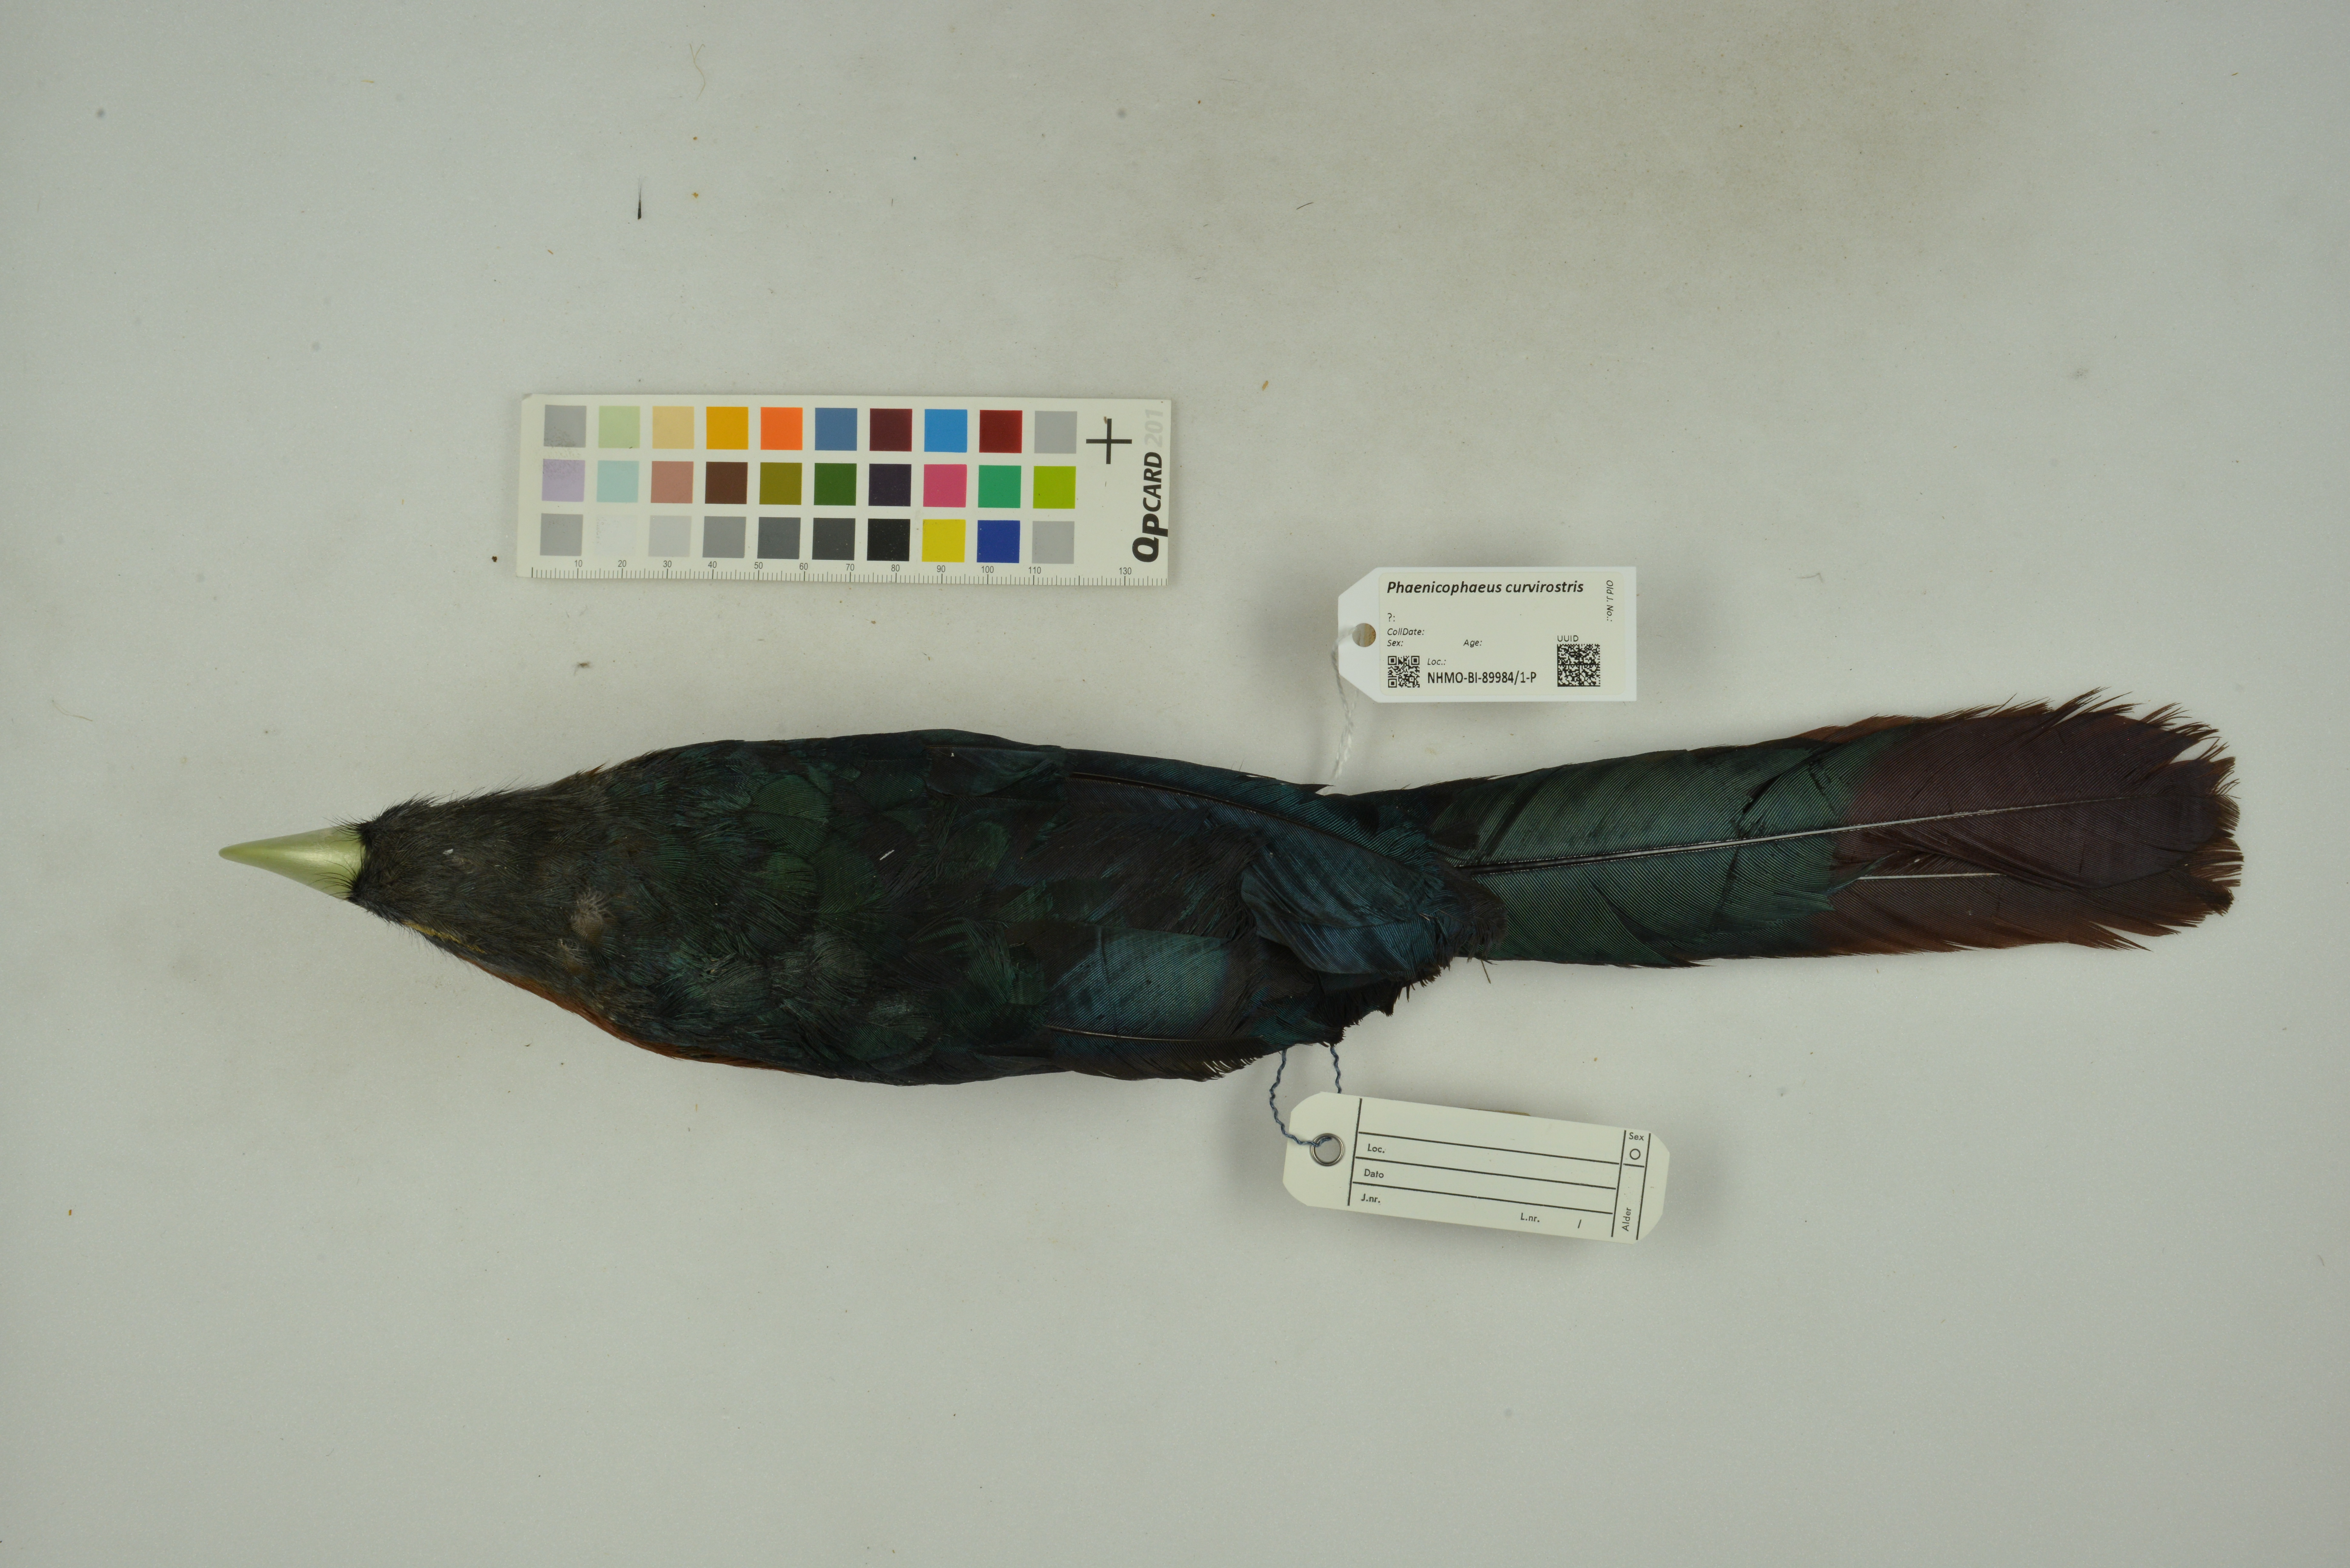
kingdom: Animalia
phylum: Chordata
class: Aves
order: Cuculiformes
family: Cuculidae
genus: Zanclostomus
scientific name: Zanclostomus curvirostris
